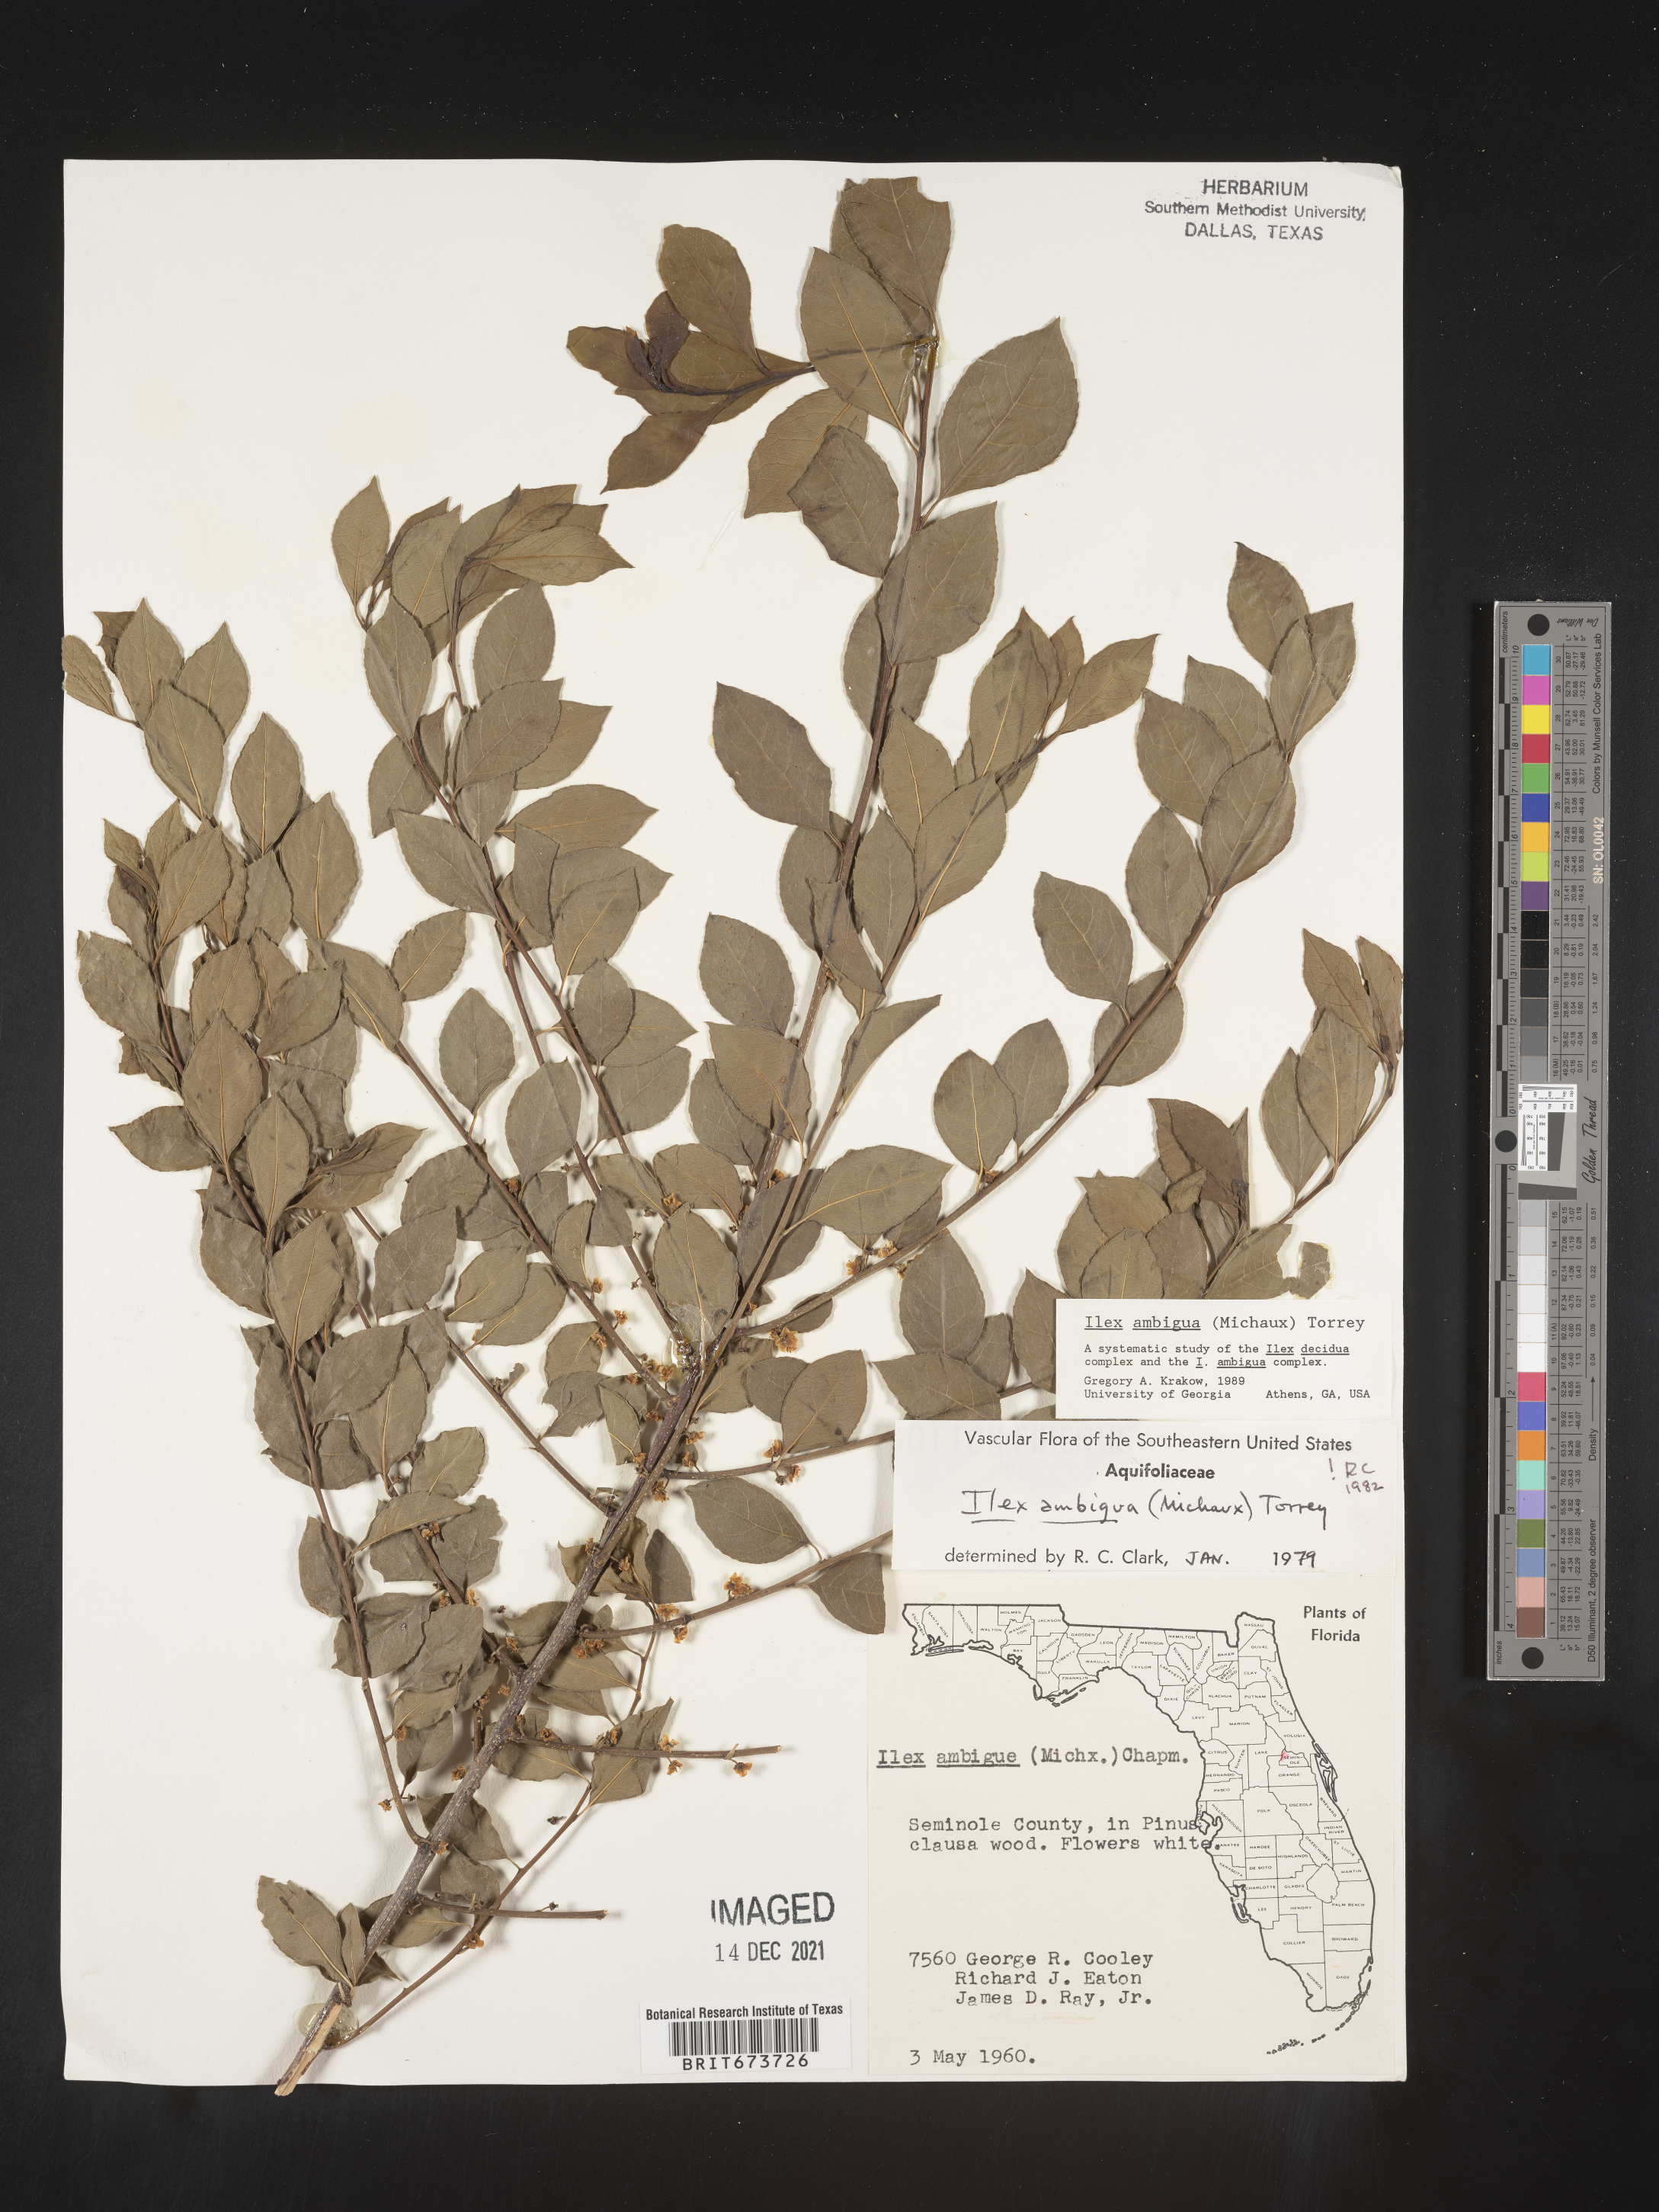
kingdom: Plantae
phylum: Tracheophyta
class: Magnoliopsida
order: Aquifoliales
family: Aquifoliaceae
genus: Ilex
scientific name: Ilex ambigua
